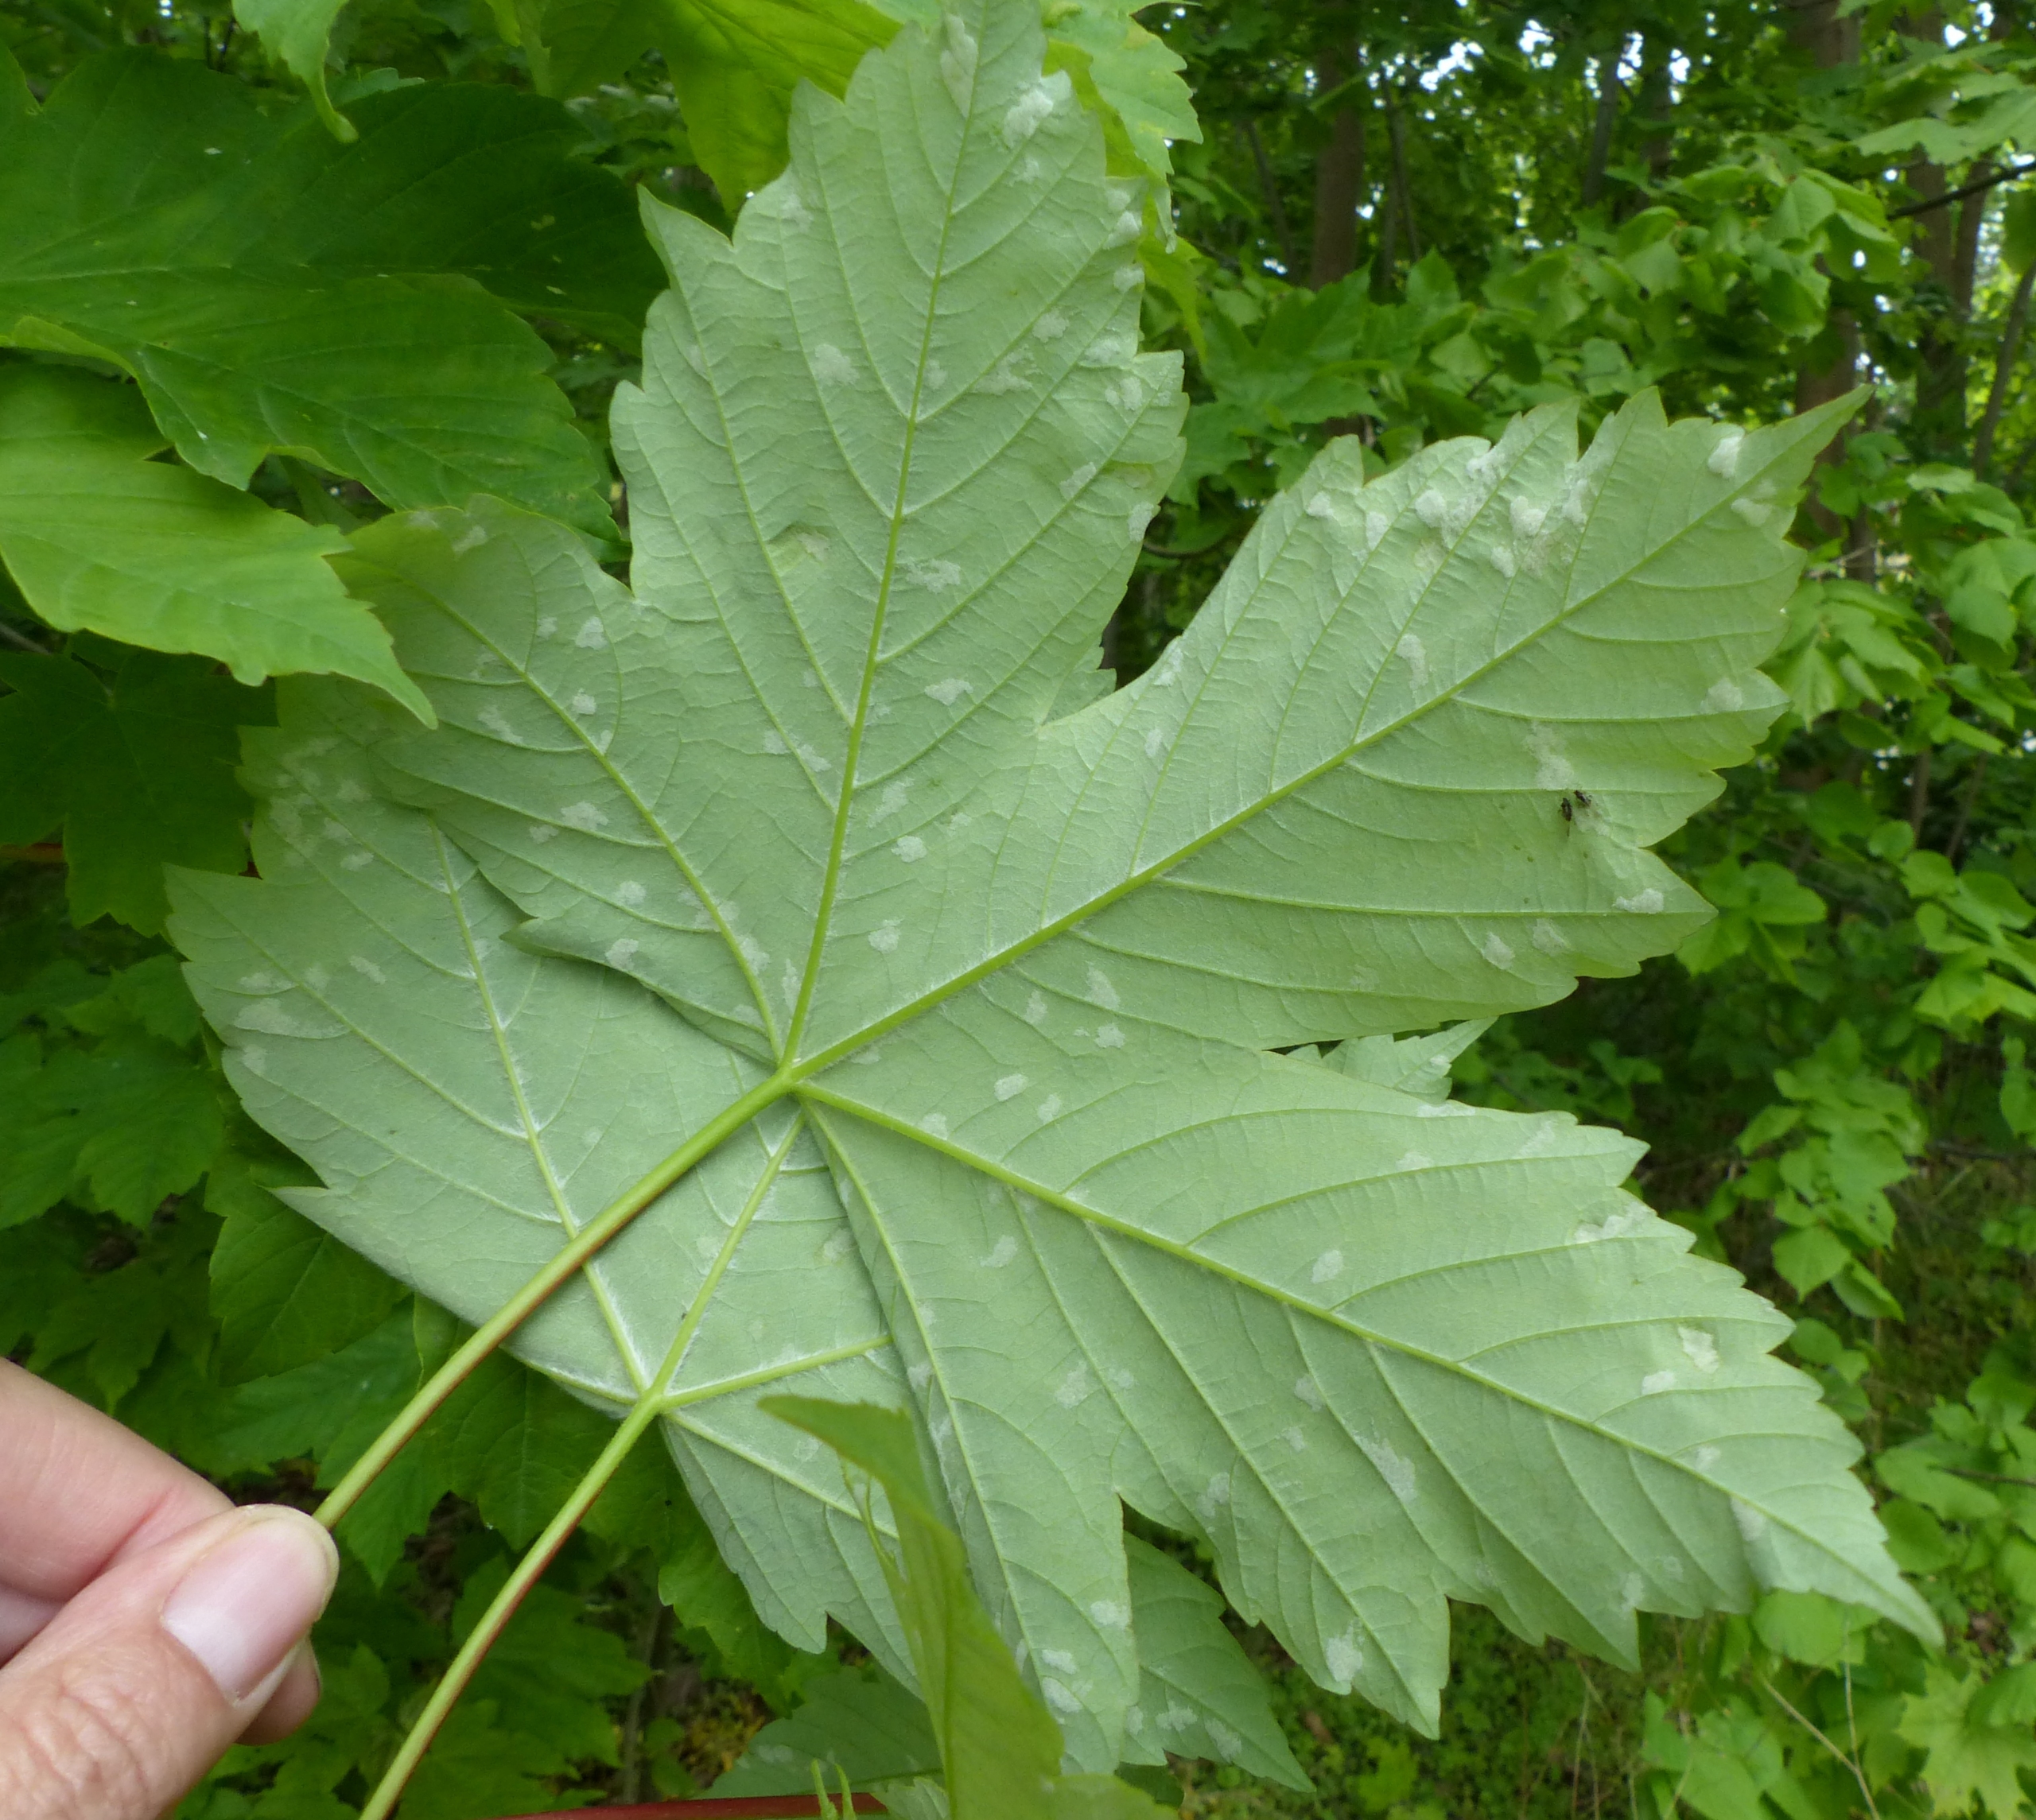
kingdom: Animalia
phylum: Arthropoda
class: Arachnida
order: Trombidiformes
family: Eriophyidae
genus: Aceria
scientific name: Aceria pseudoplatani
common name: Ahornfiltgalmide
